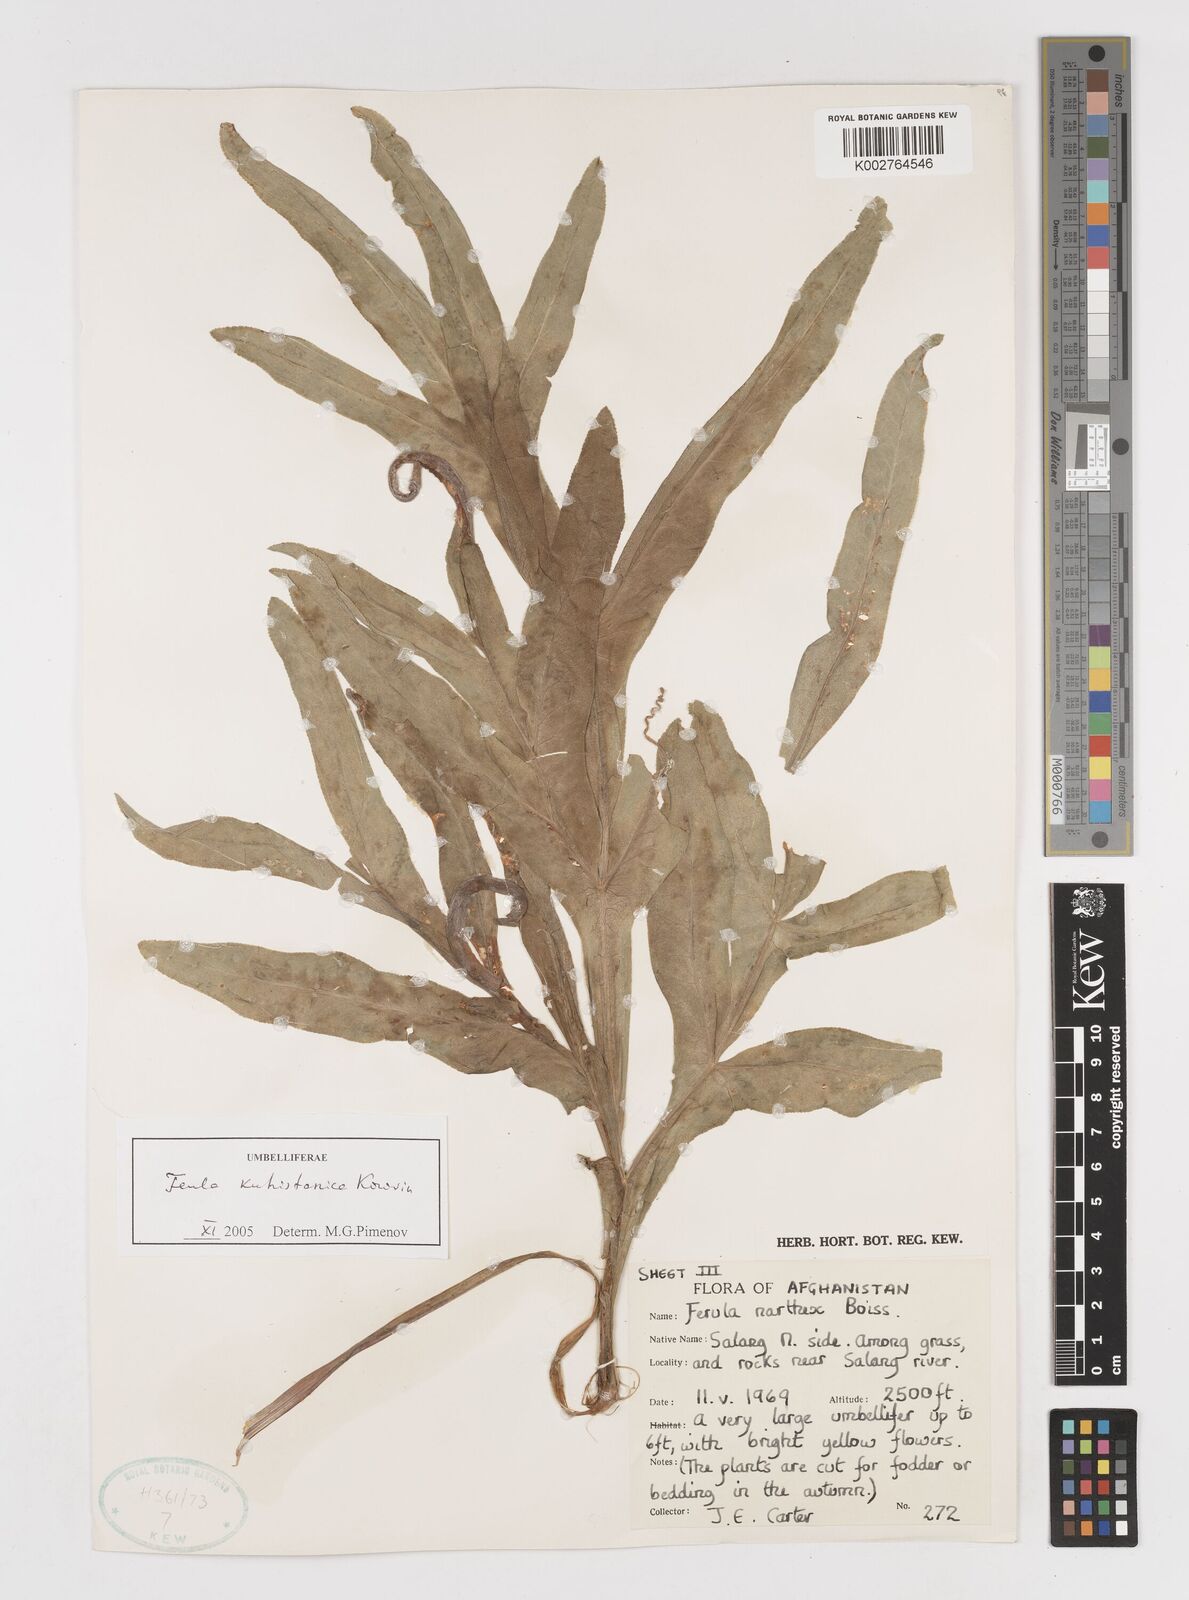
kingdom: Plantae
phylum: Tracheophyta
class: Magnoliopsida
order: Apiales
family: Apiaceae
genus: Ferula
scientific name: Ferula kuhistanica
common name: Kamol
